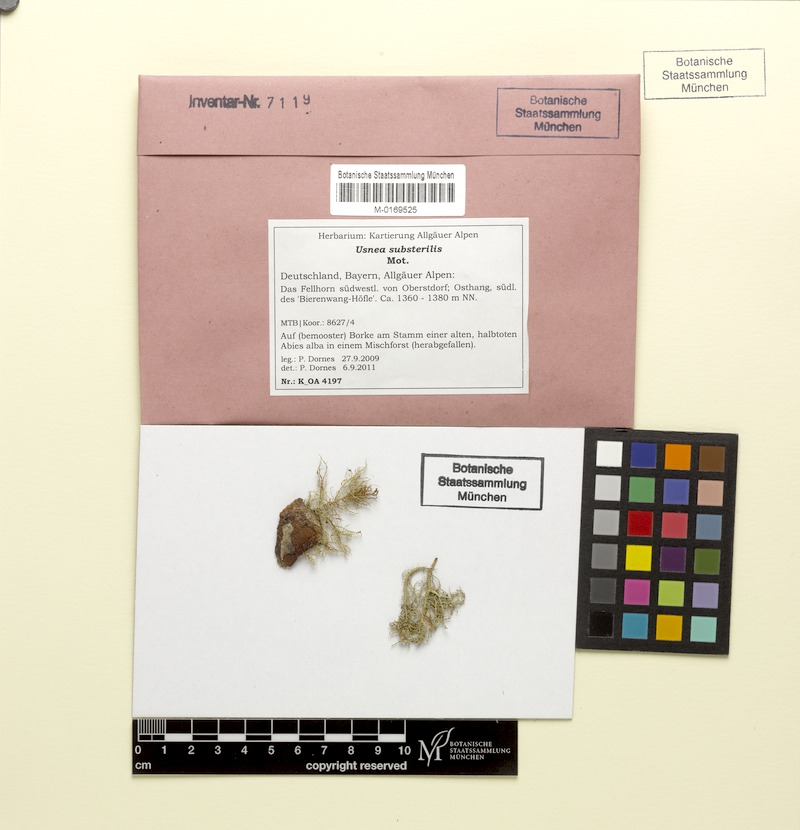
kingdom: Fungi
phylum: Ascomycota
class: Lecanoromycetes
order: Lecanorales
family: Parmeliaceae
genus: Usnea
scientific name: Usnea substerilis
